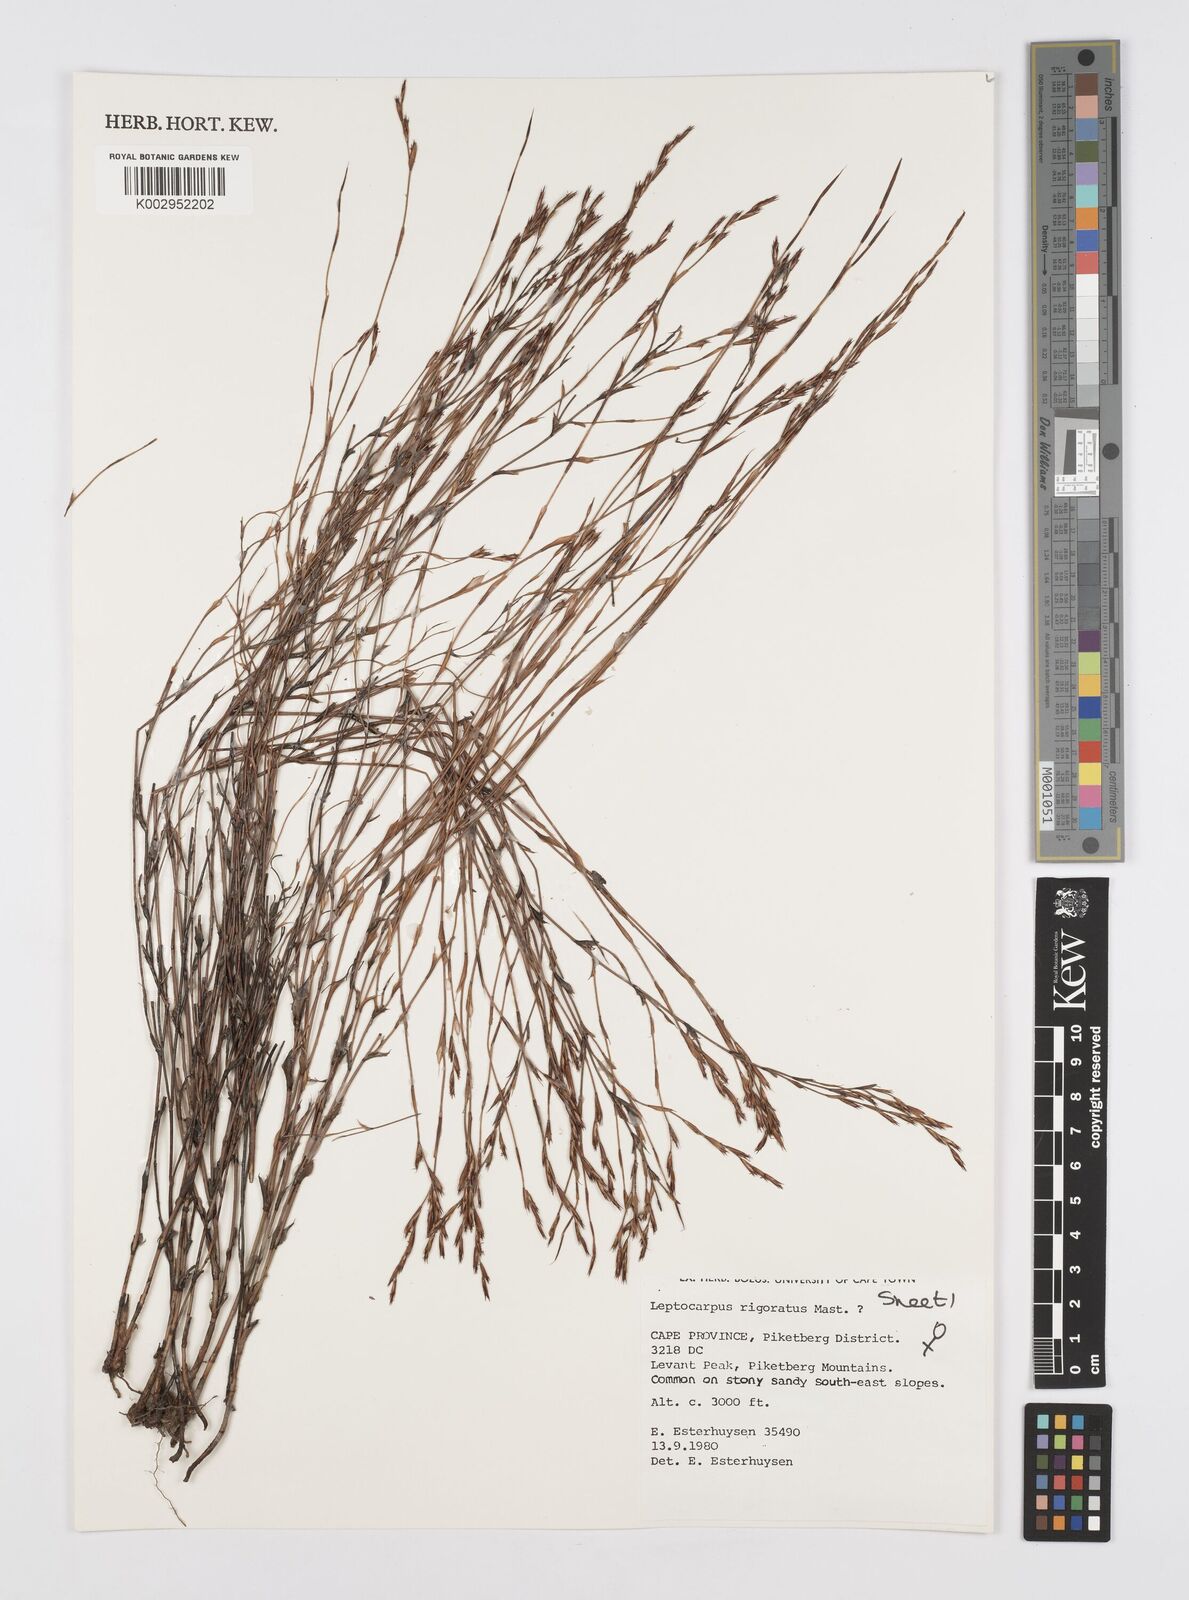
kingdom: Plantae
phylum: Tracheophyta
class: Liliopsida
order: Poales
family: Restionaceae
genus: Restio
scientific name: Restio rigoratus
